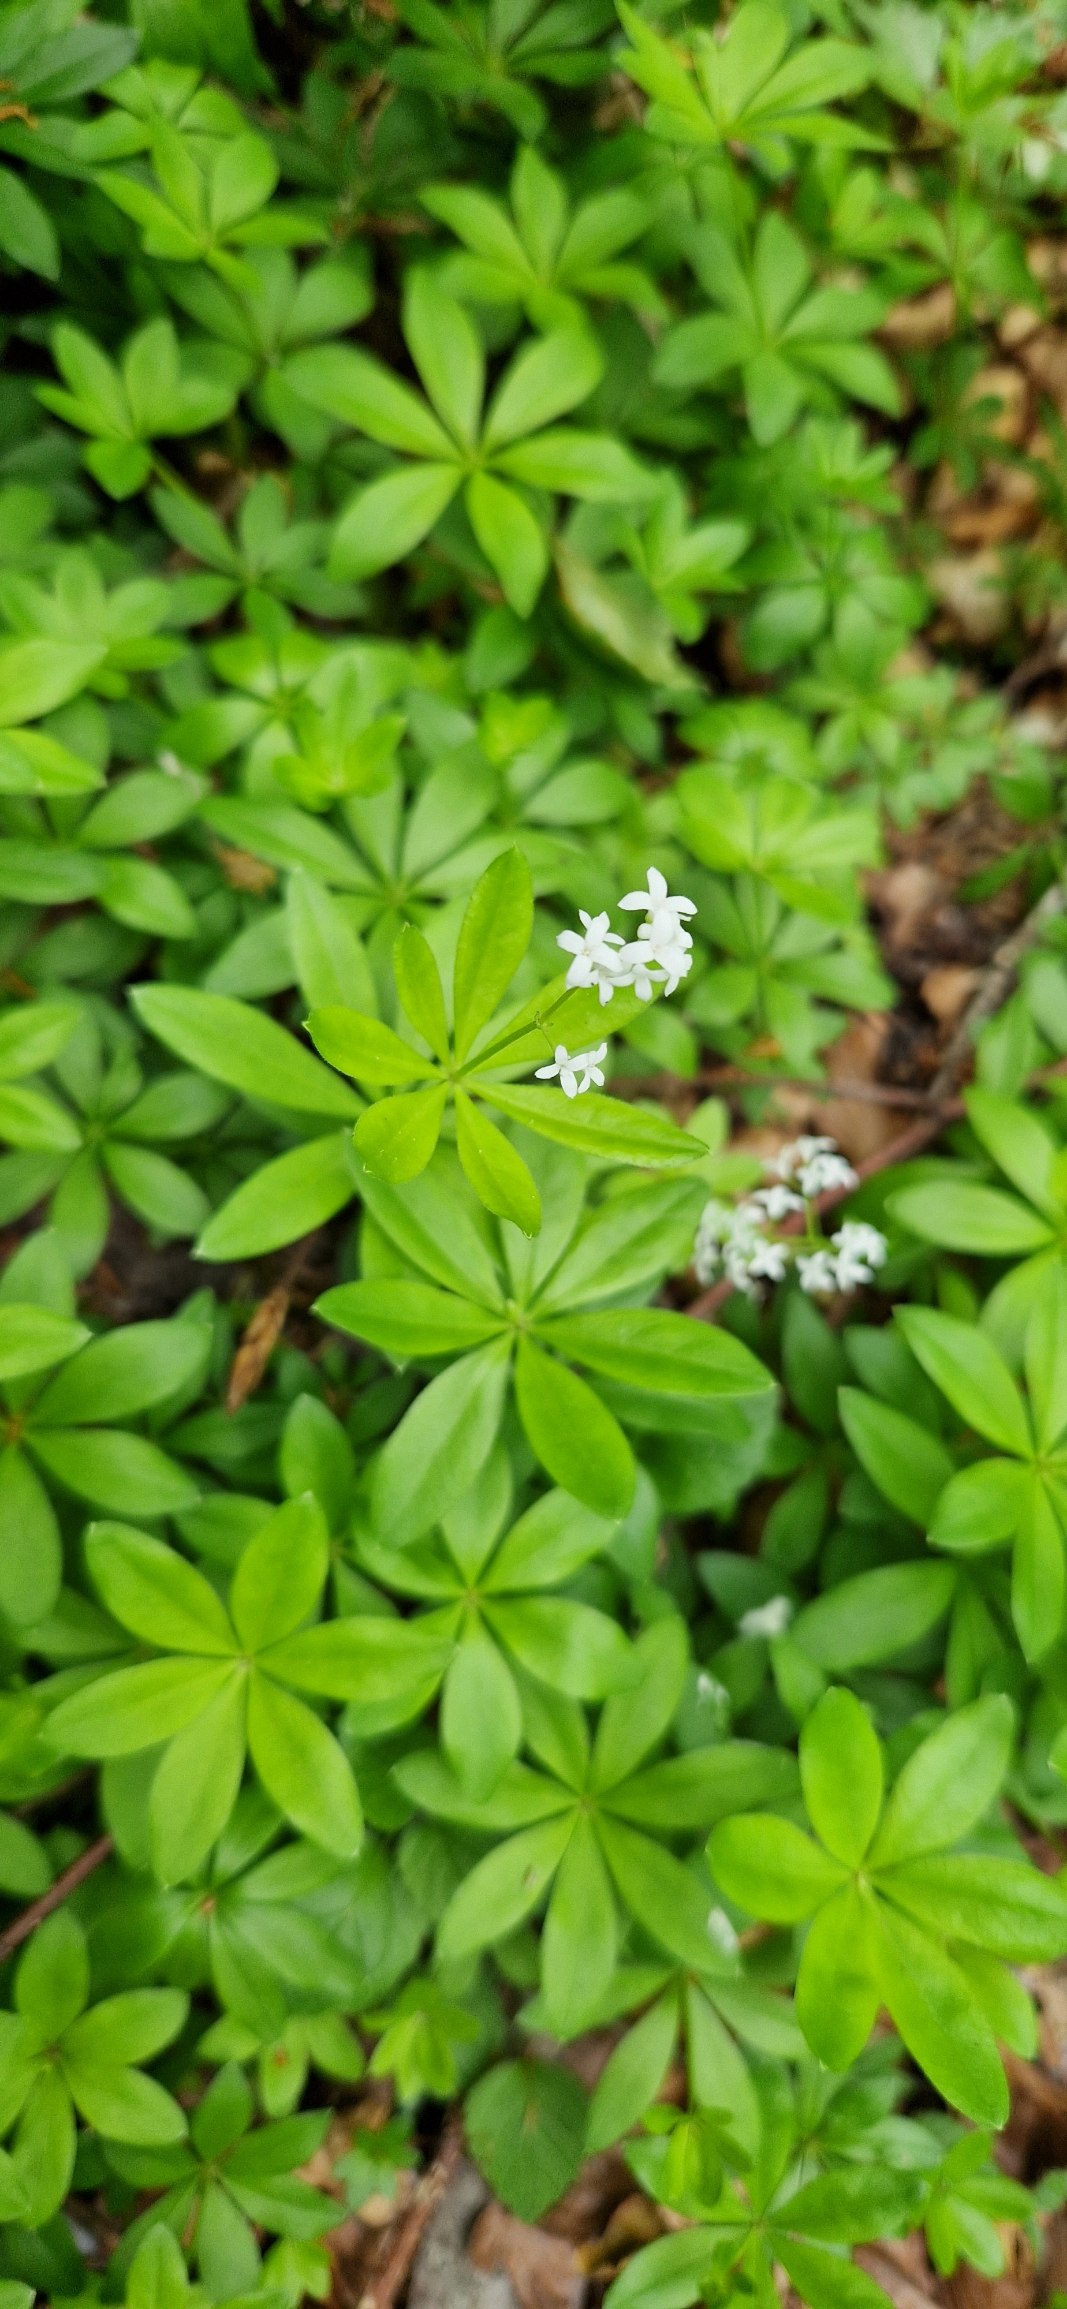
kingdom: Plantae
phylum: Tracheophyta
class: Magnoliopsida
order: Gentianales
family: Rubiaceae
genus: Galium
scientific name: Galium odoratum
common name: Skovmærke
